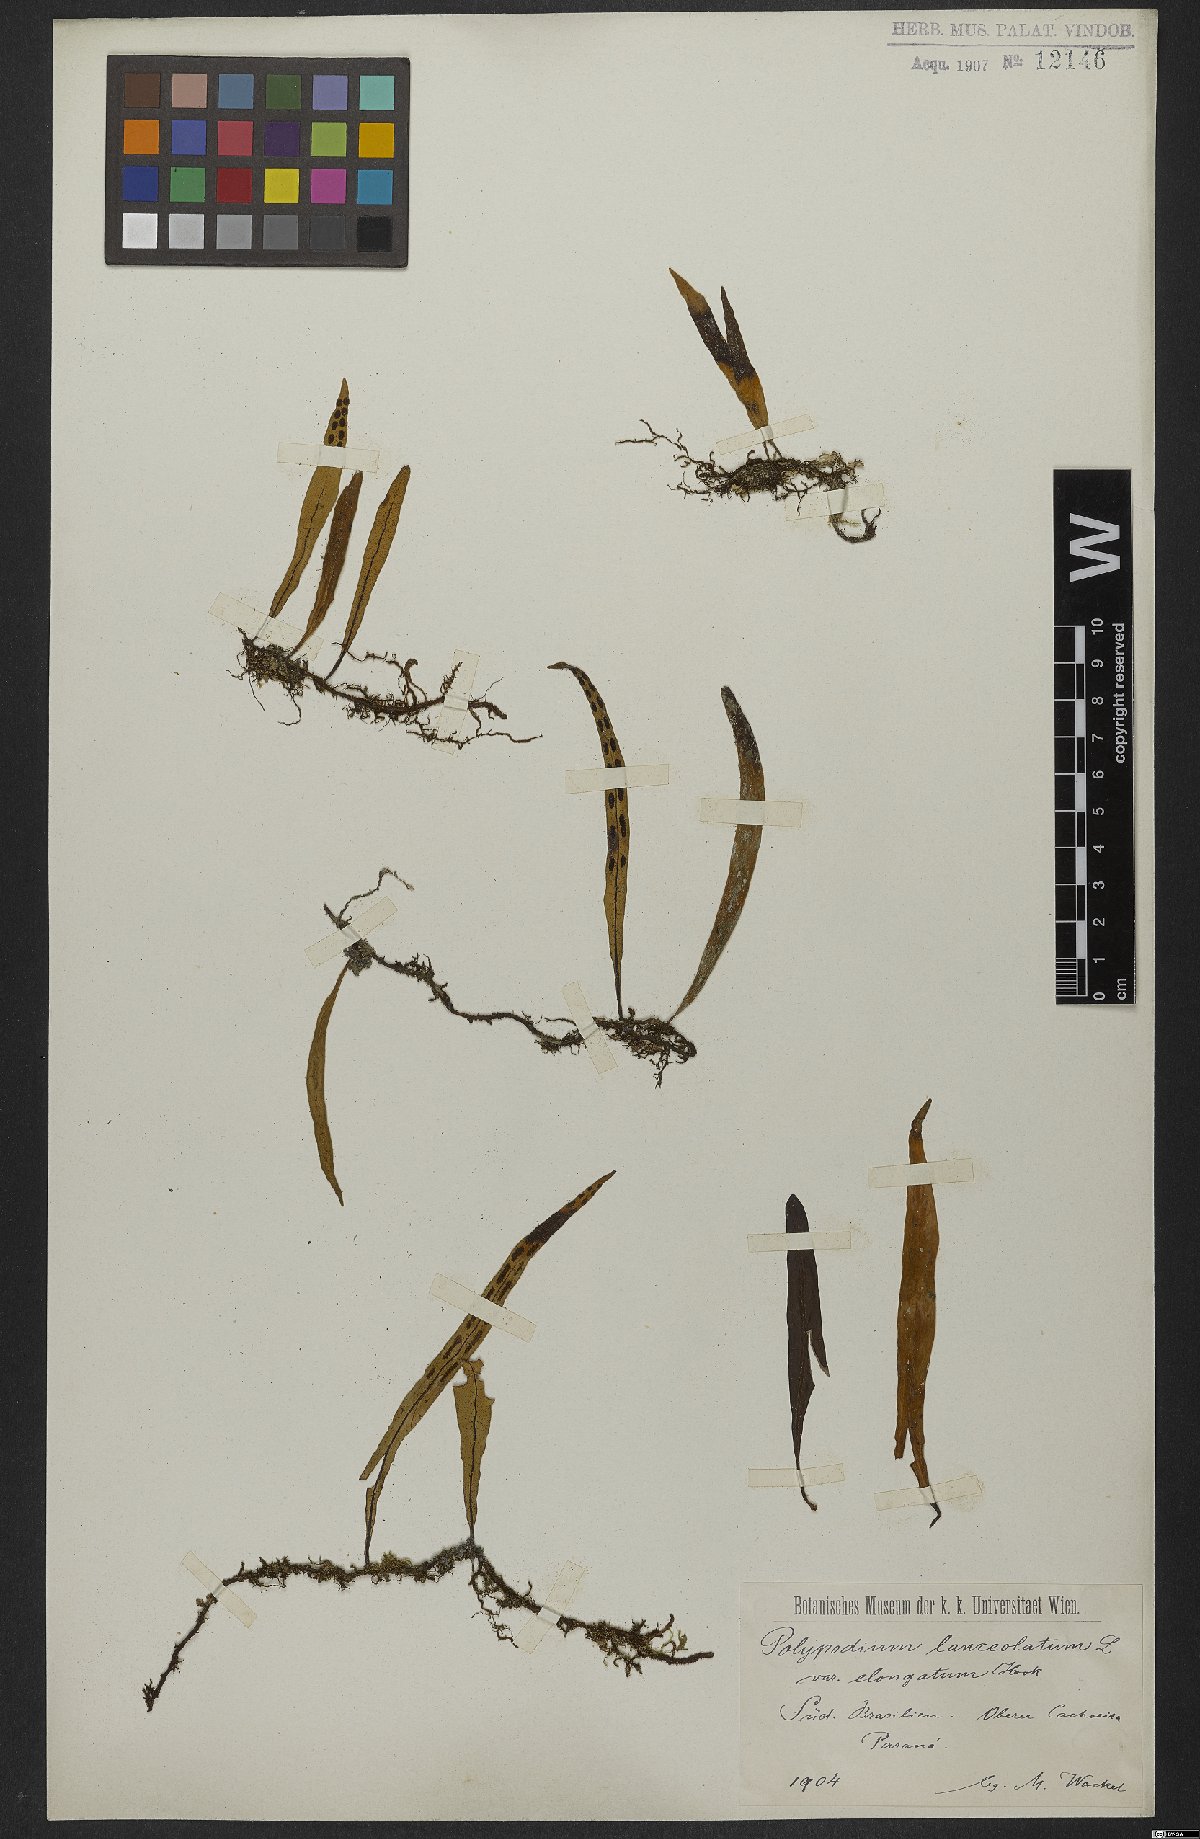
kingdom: Plantae
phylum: Tracheophyta
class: Polypodiopsida
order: Polypodiales
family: Polypodiaceae
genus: Pleopeltis
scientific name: Pleopeltis macrocarpa
